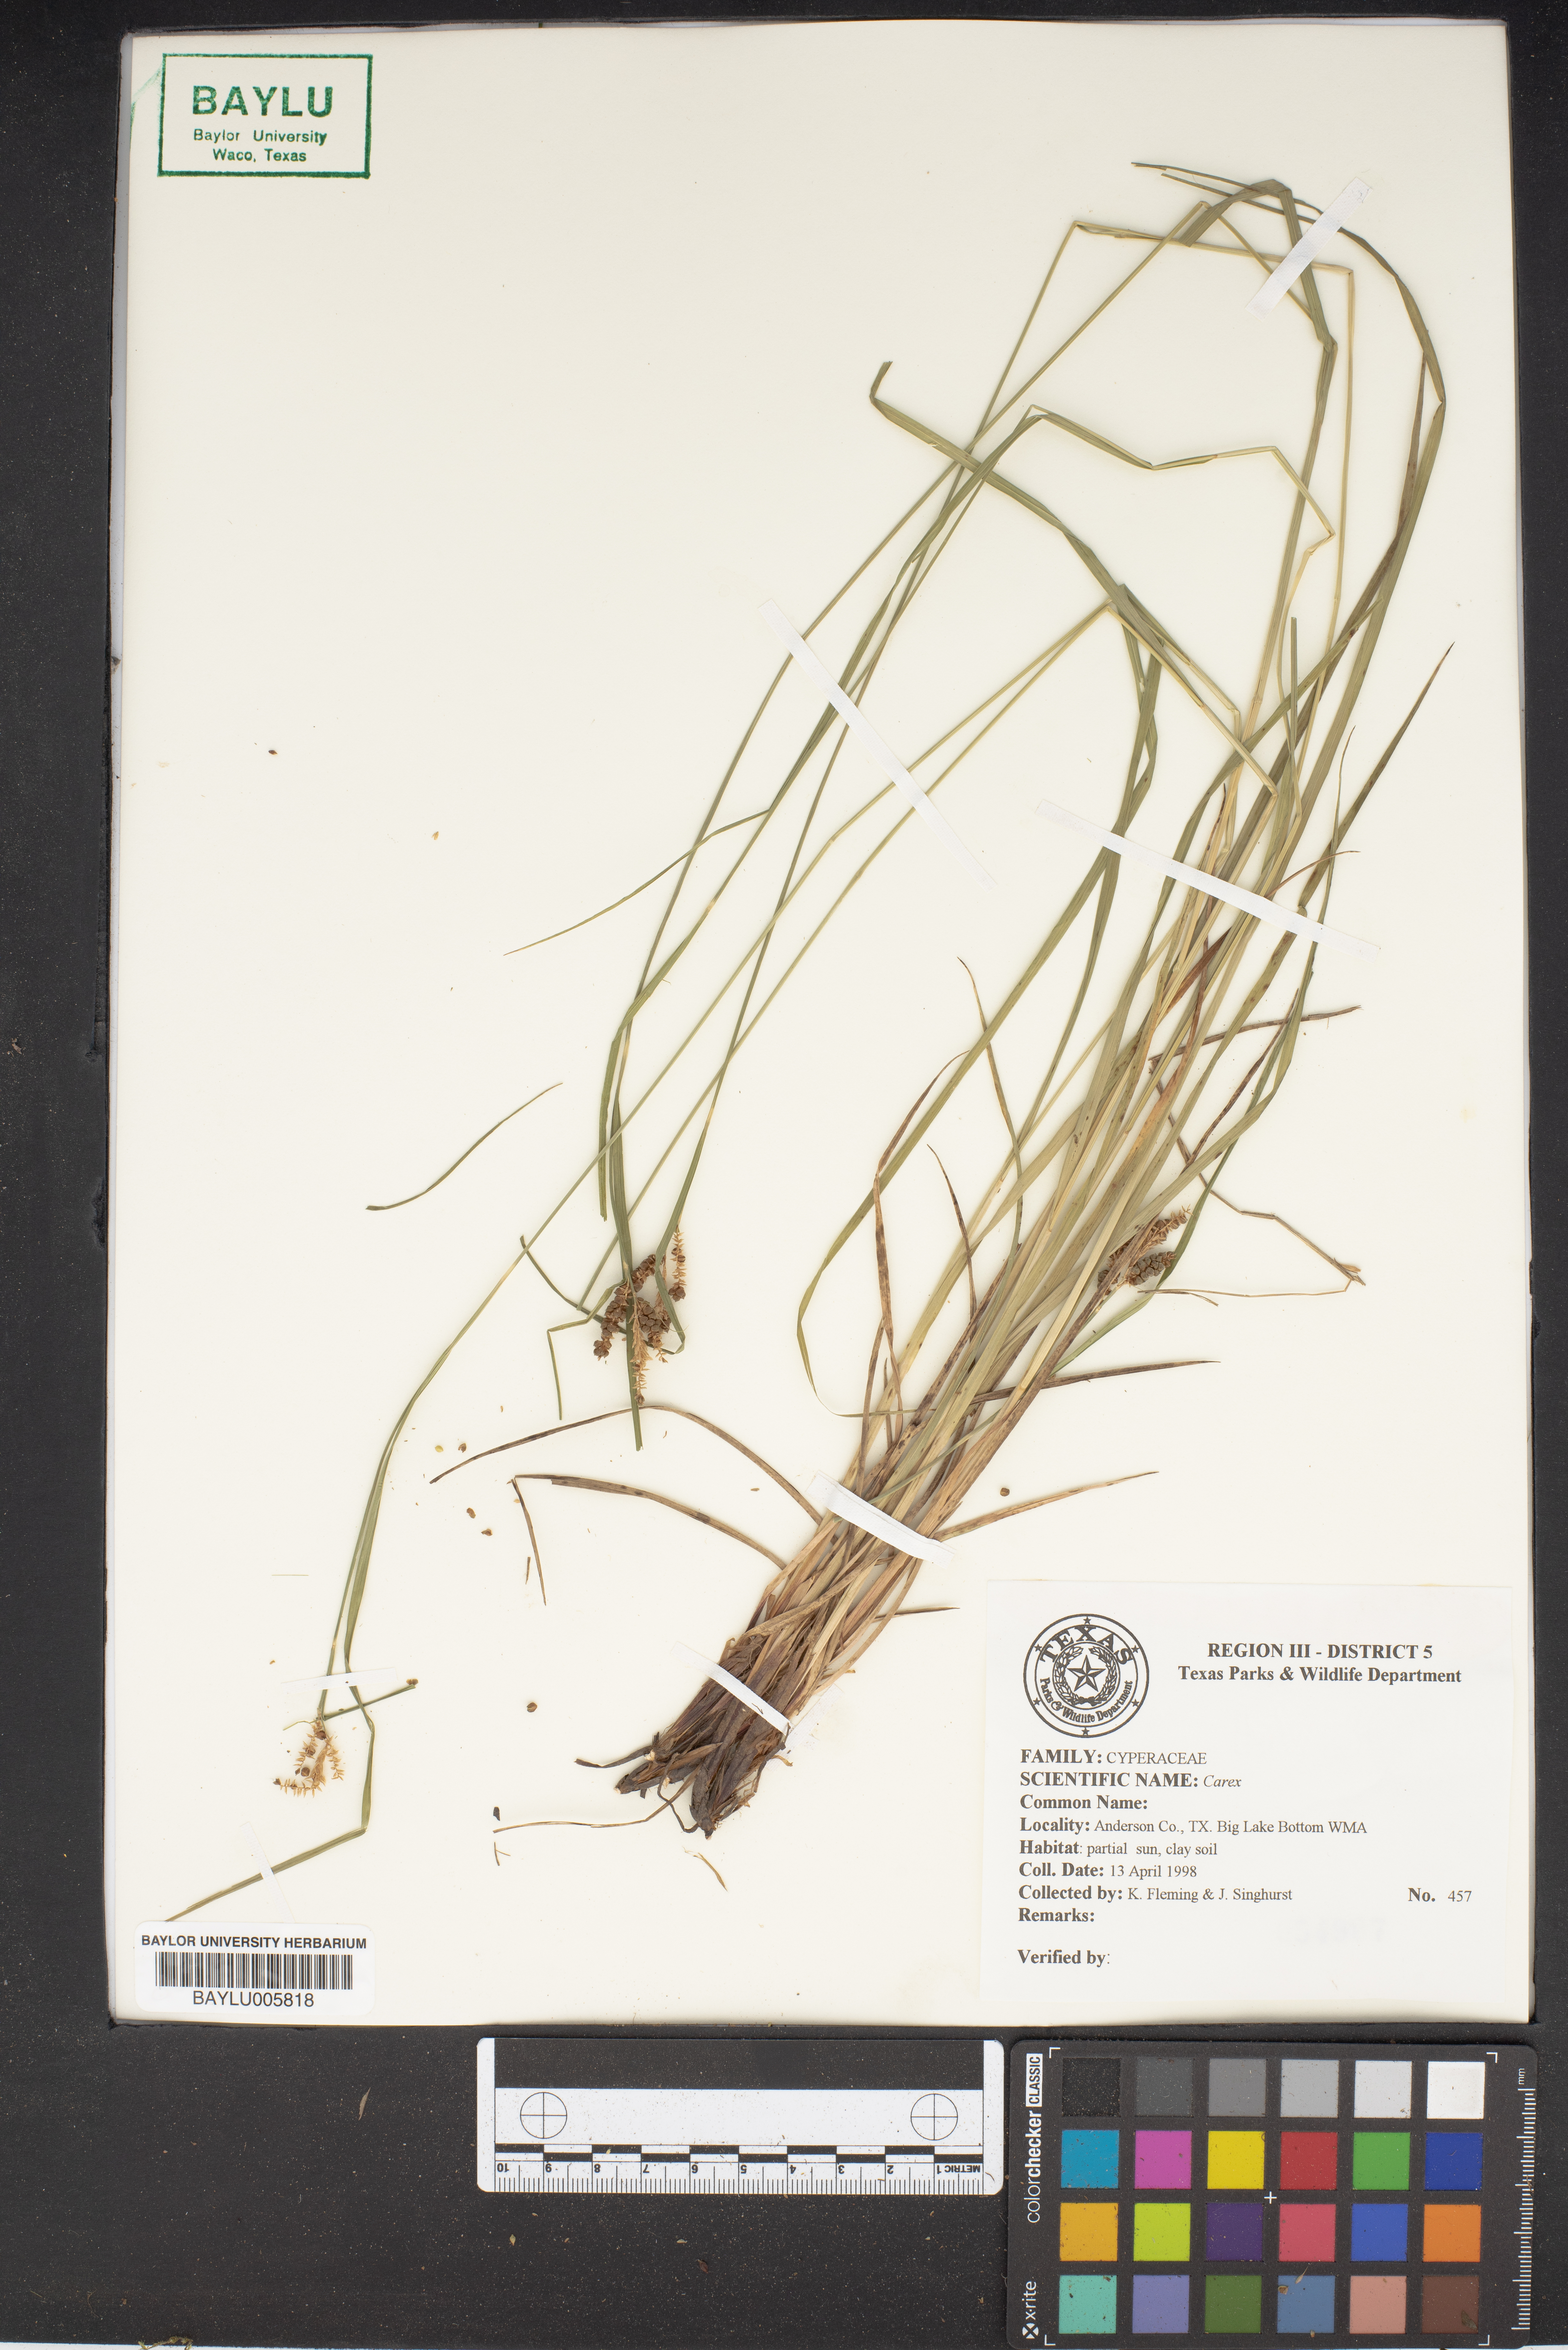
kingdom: Plantae
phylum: Tracheophyta
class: Liliopsida
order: Poales
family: Cyperaceae
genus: Carex
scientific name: Carex
